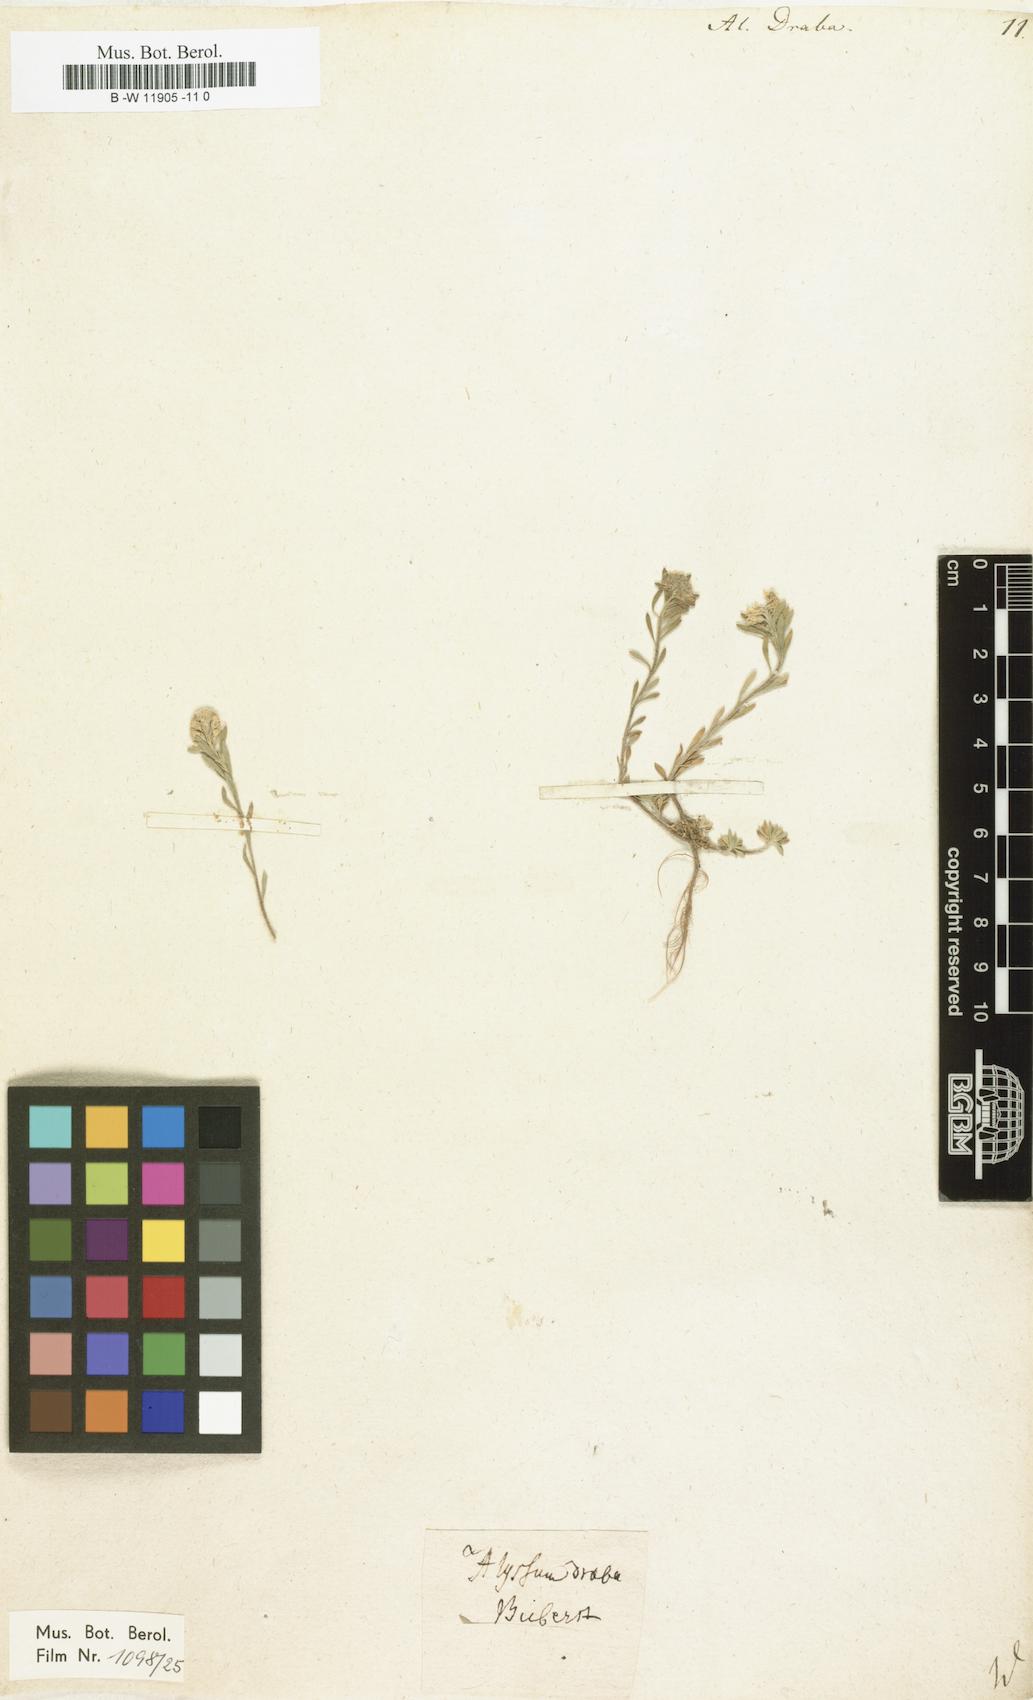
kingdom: Plantae
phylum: Tracheophyta
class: Magnoliopsida
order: Brassicales
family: Brassicaceae
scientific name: Brassicaceae
